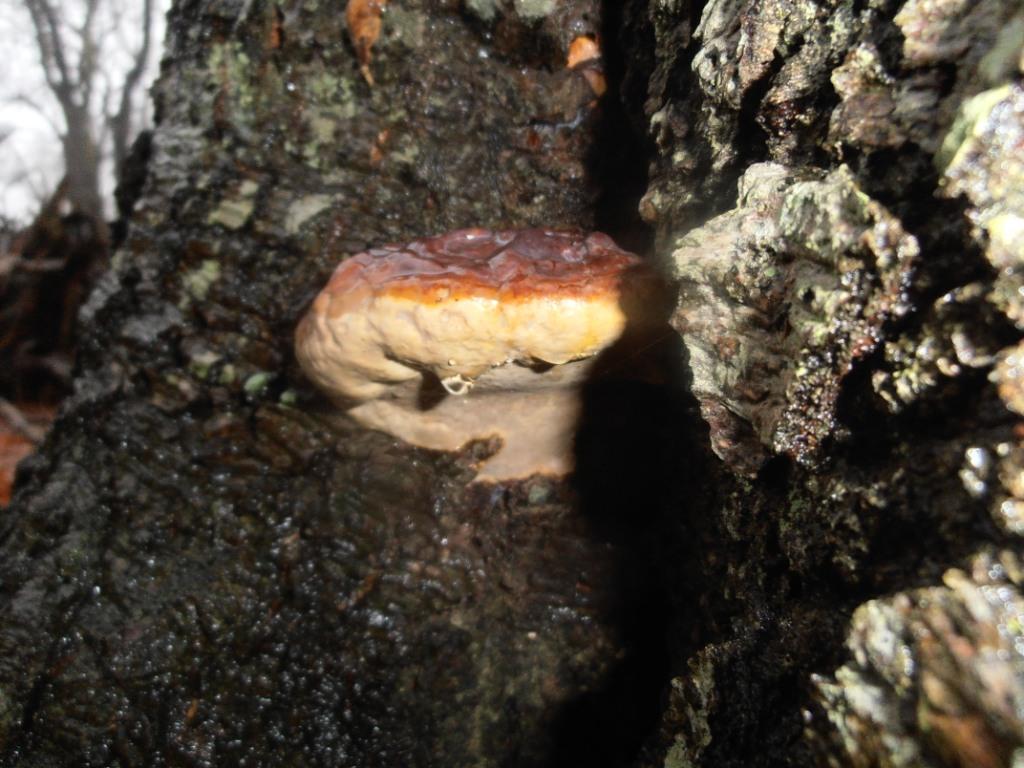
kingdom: Fungi
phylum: Basidiomycota
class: Agaricomycetes
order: Polyporales
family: Polyporaceae
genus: Ganoderma
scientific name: Ganoderma pfeifferi
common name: kobberrød lakporesvamp
